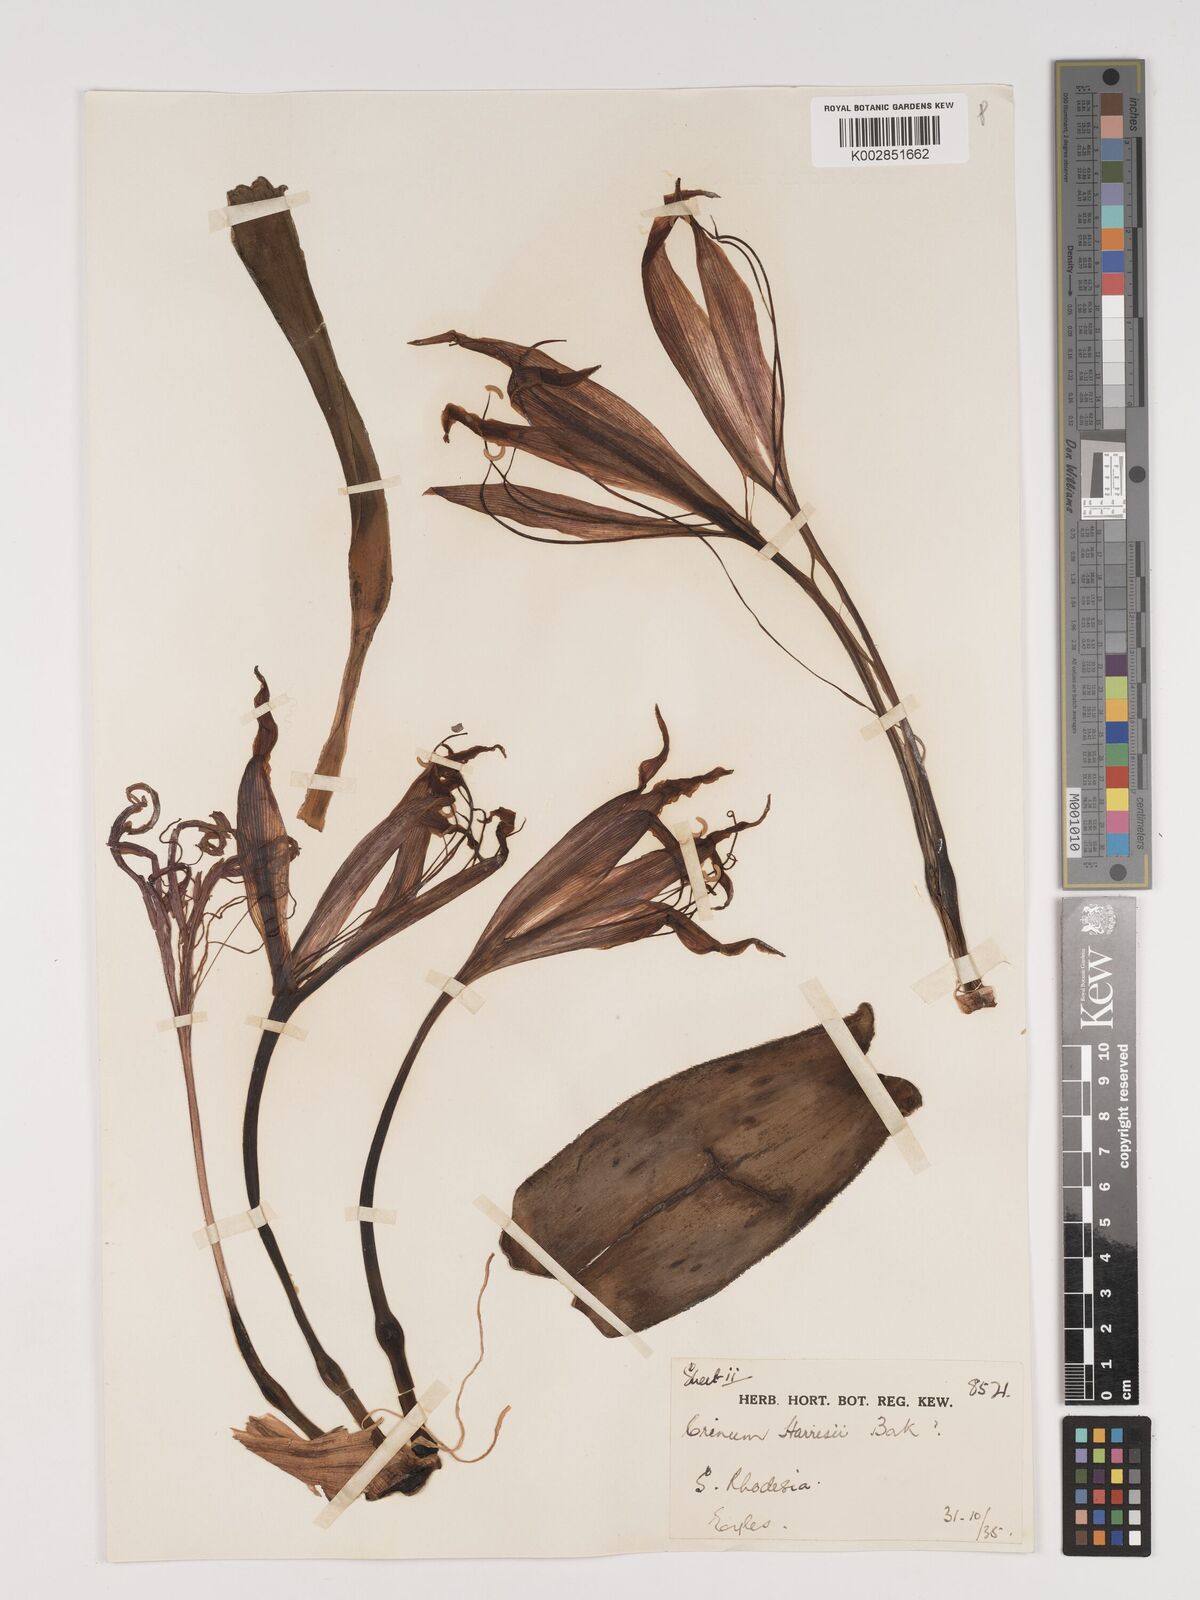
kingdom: Plantae
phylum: Tracheophyta
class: Liliopsida
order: Asparagales
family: Amaryllidaceae
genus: Crinum
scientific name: Crinum graminicola
